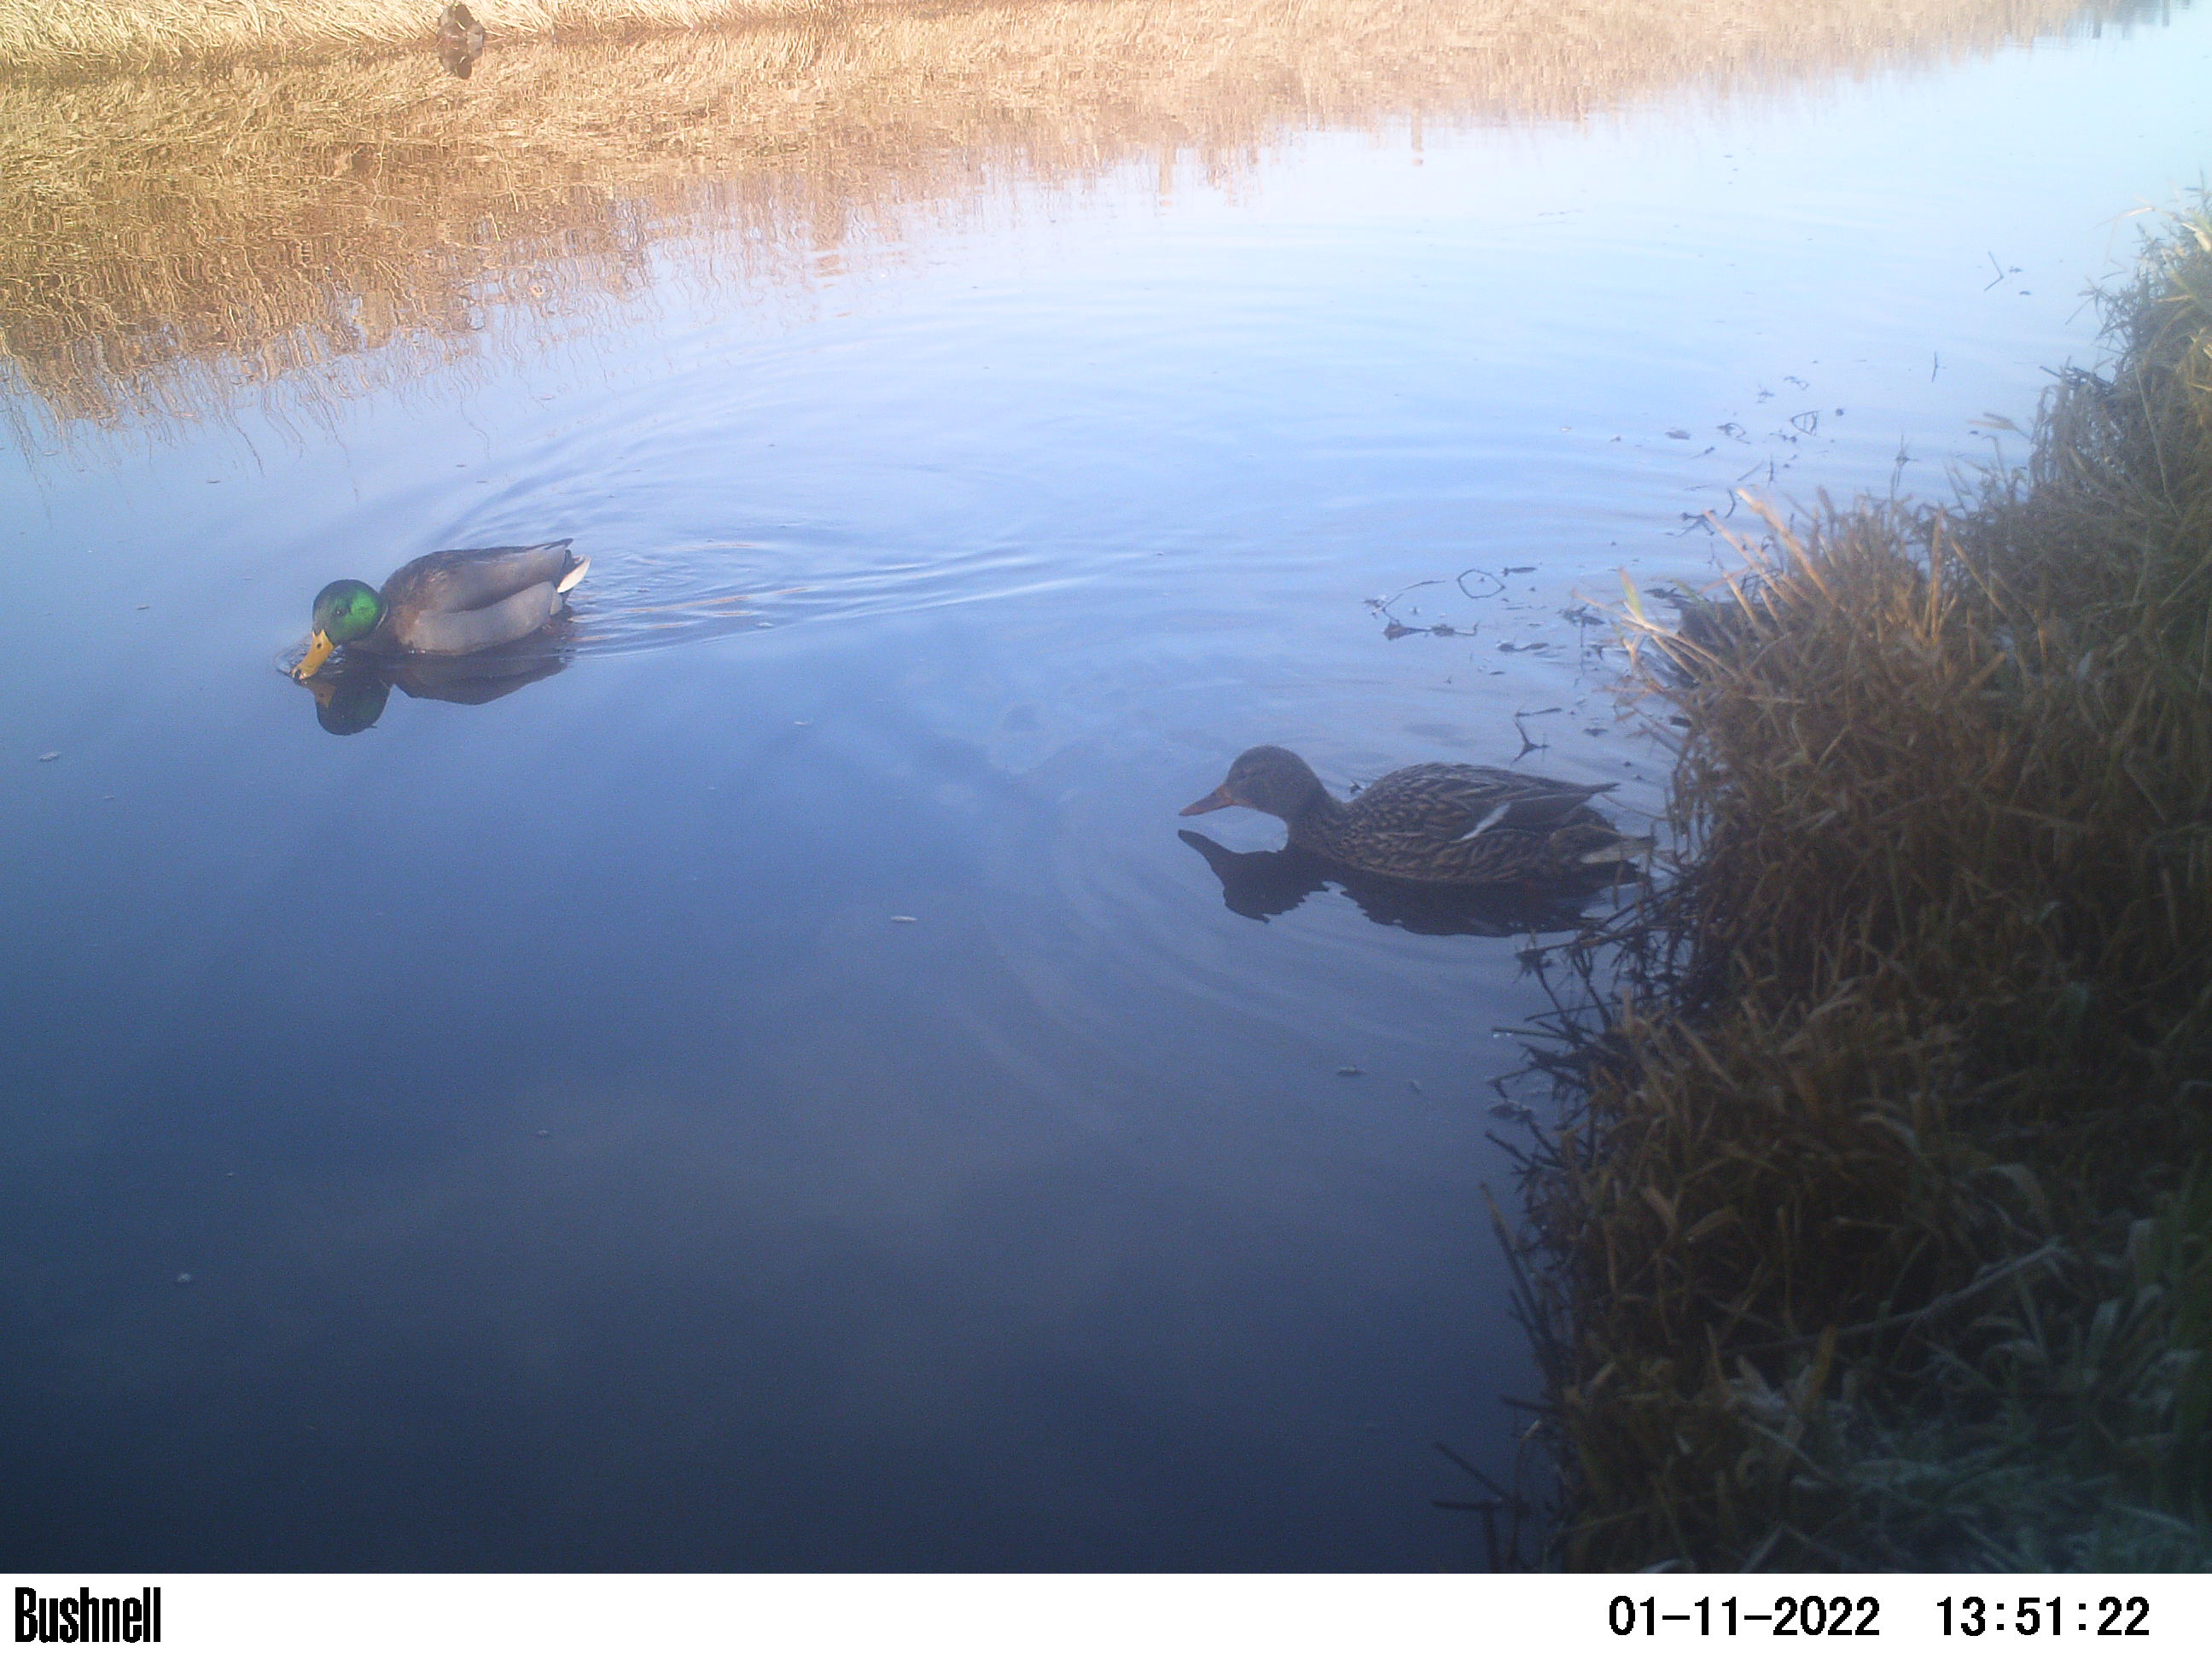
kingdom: Animalia
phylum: Chordata
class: Aves
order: Anseriformes
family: Anatidae
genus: Anas
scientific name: Anas
